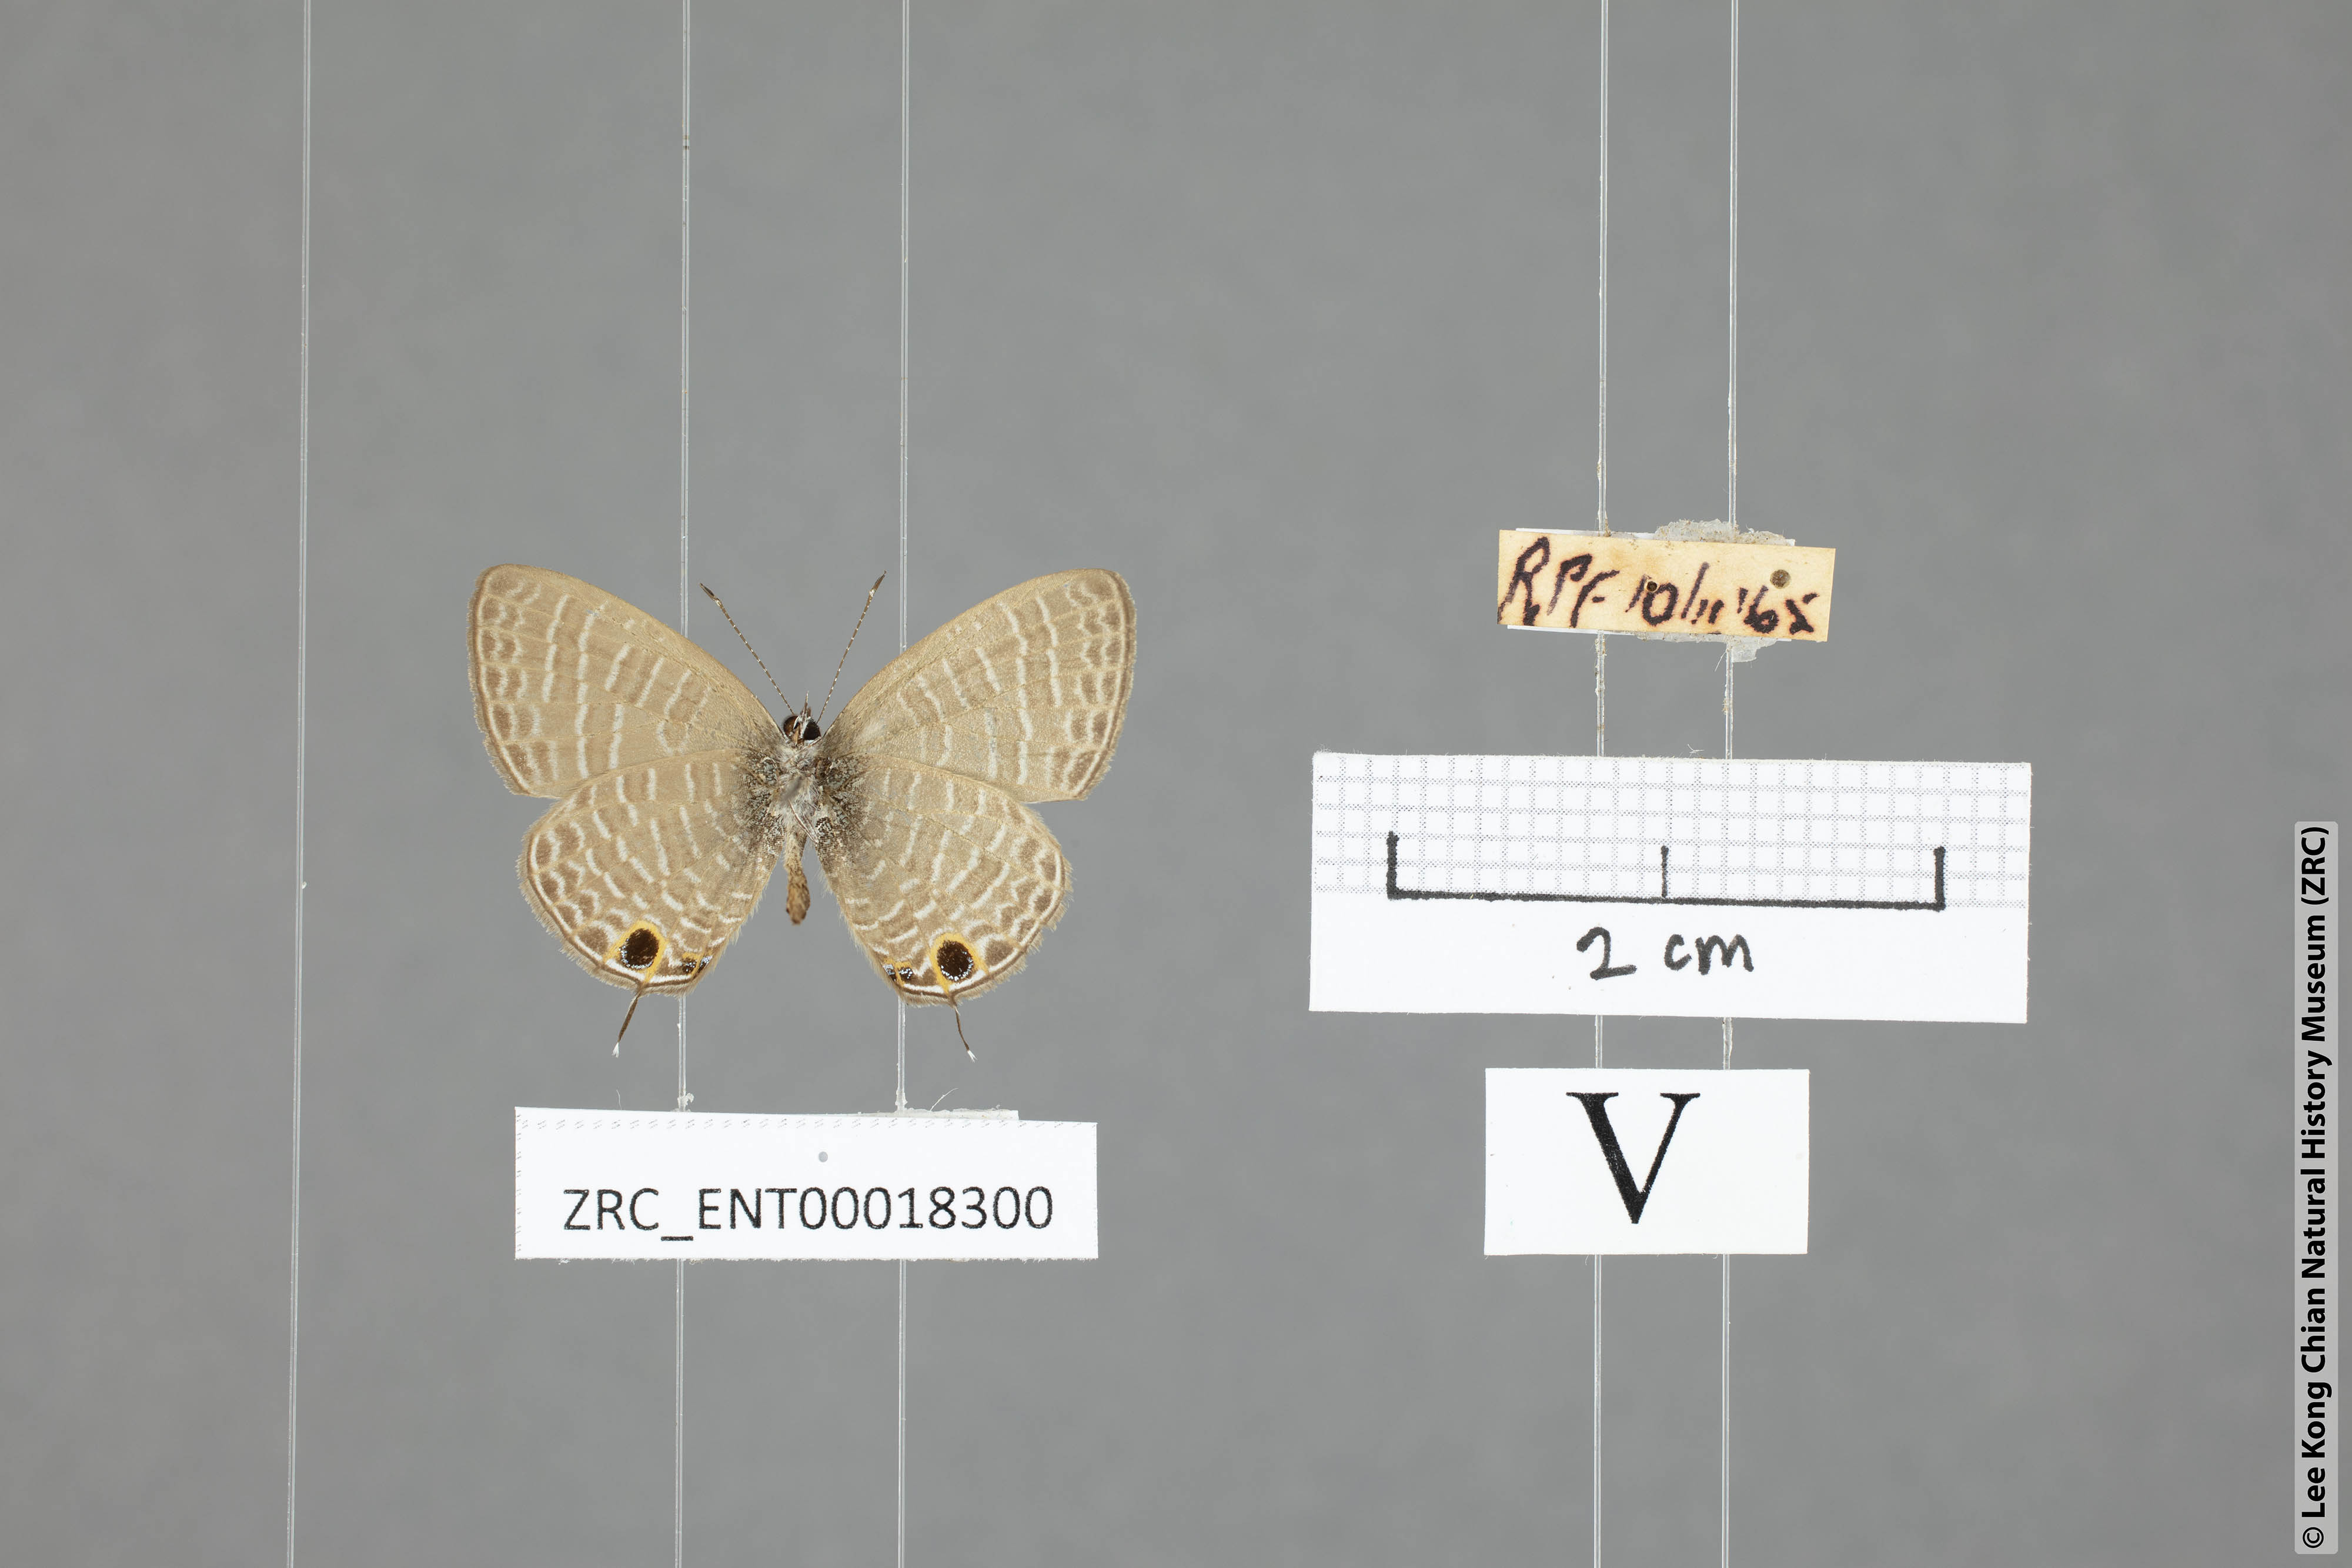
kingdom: Animalia
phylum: Arthropoda
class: Insecta
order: Lepidoptera
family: Lycaenidae
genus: Nacaduba
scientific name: Nacaduba berenice
